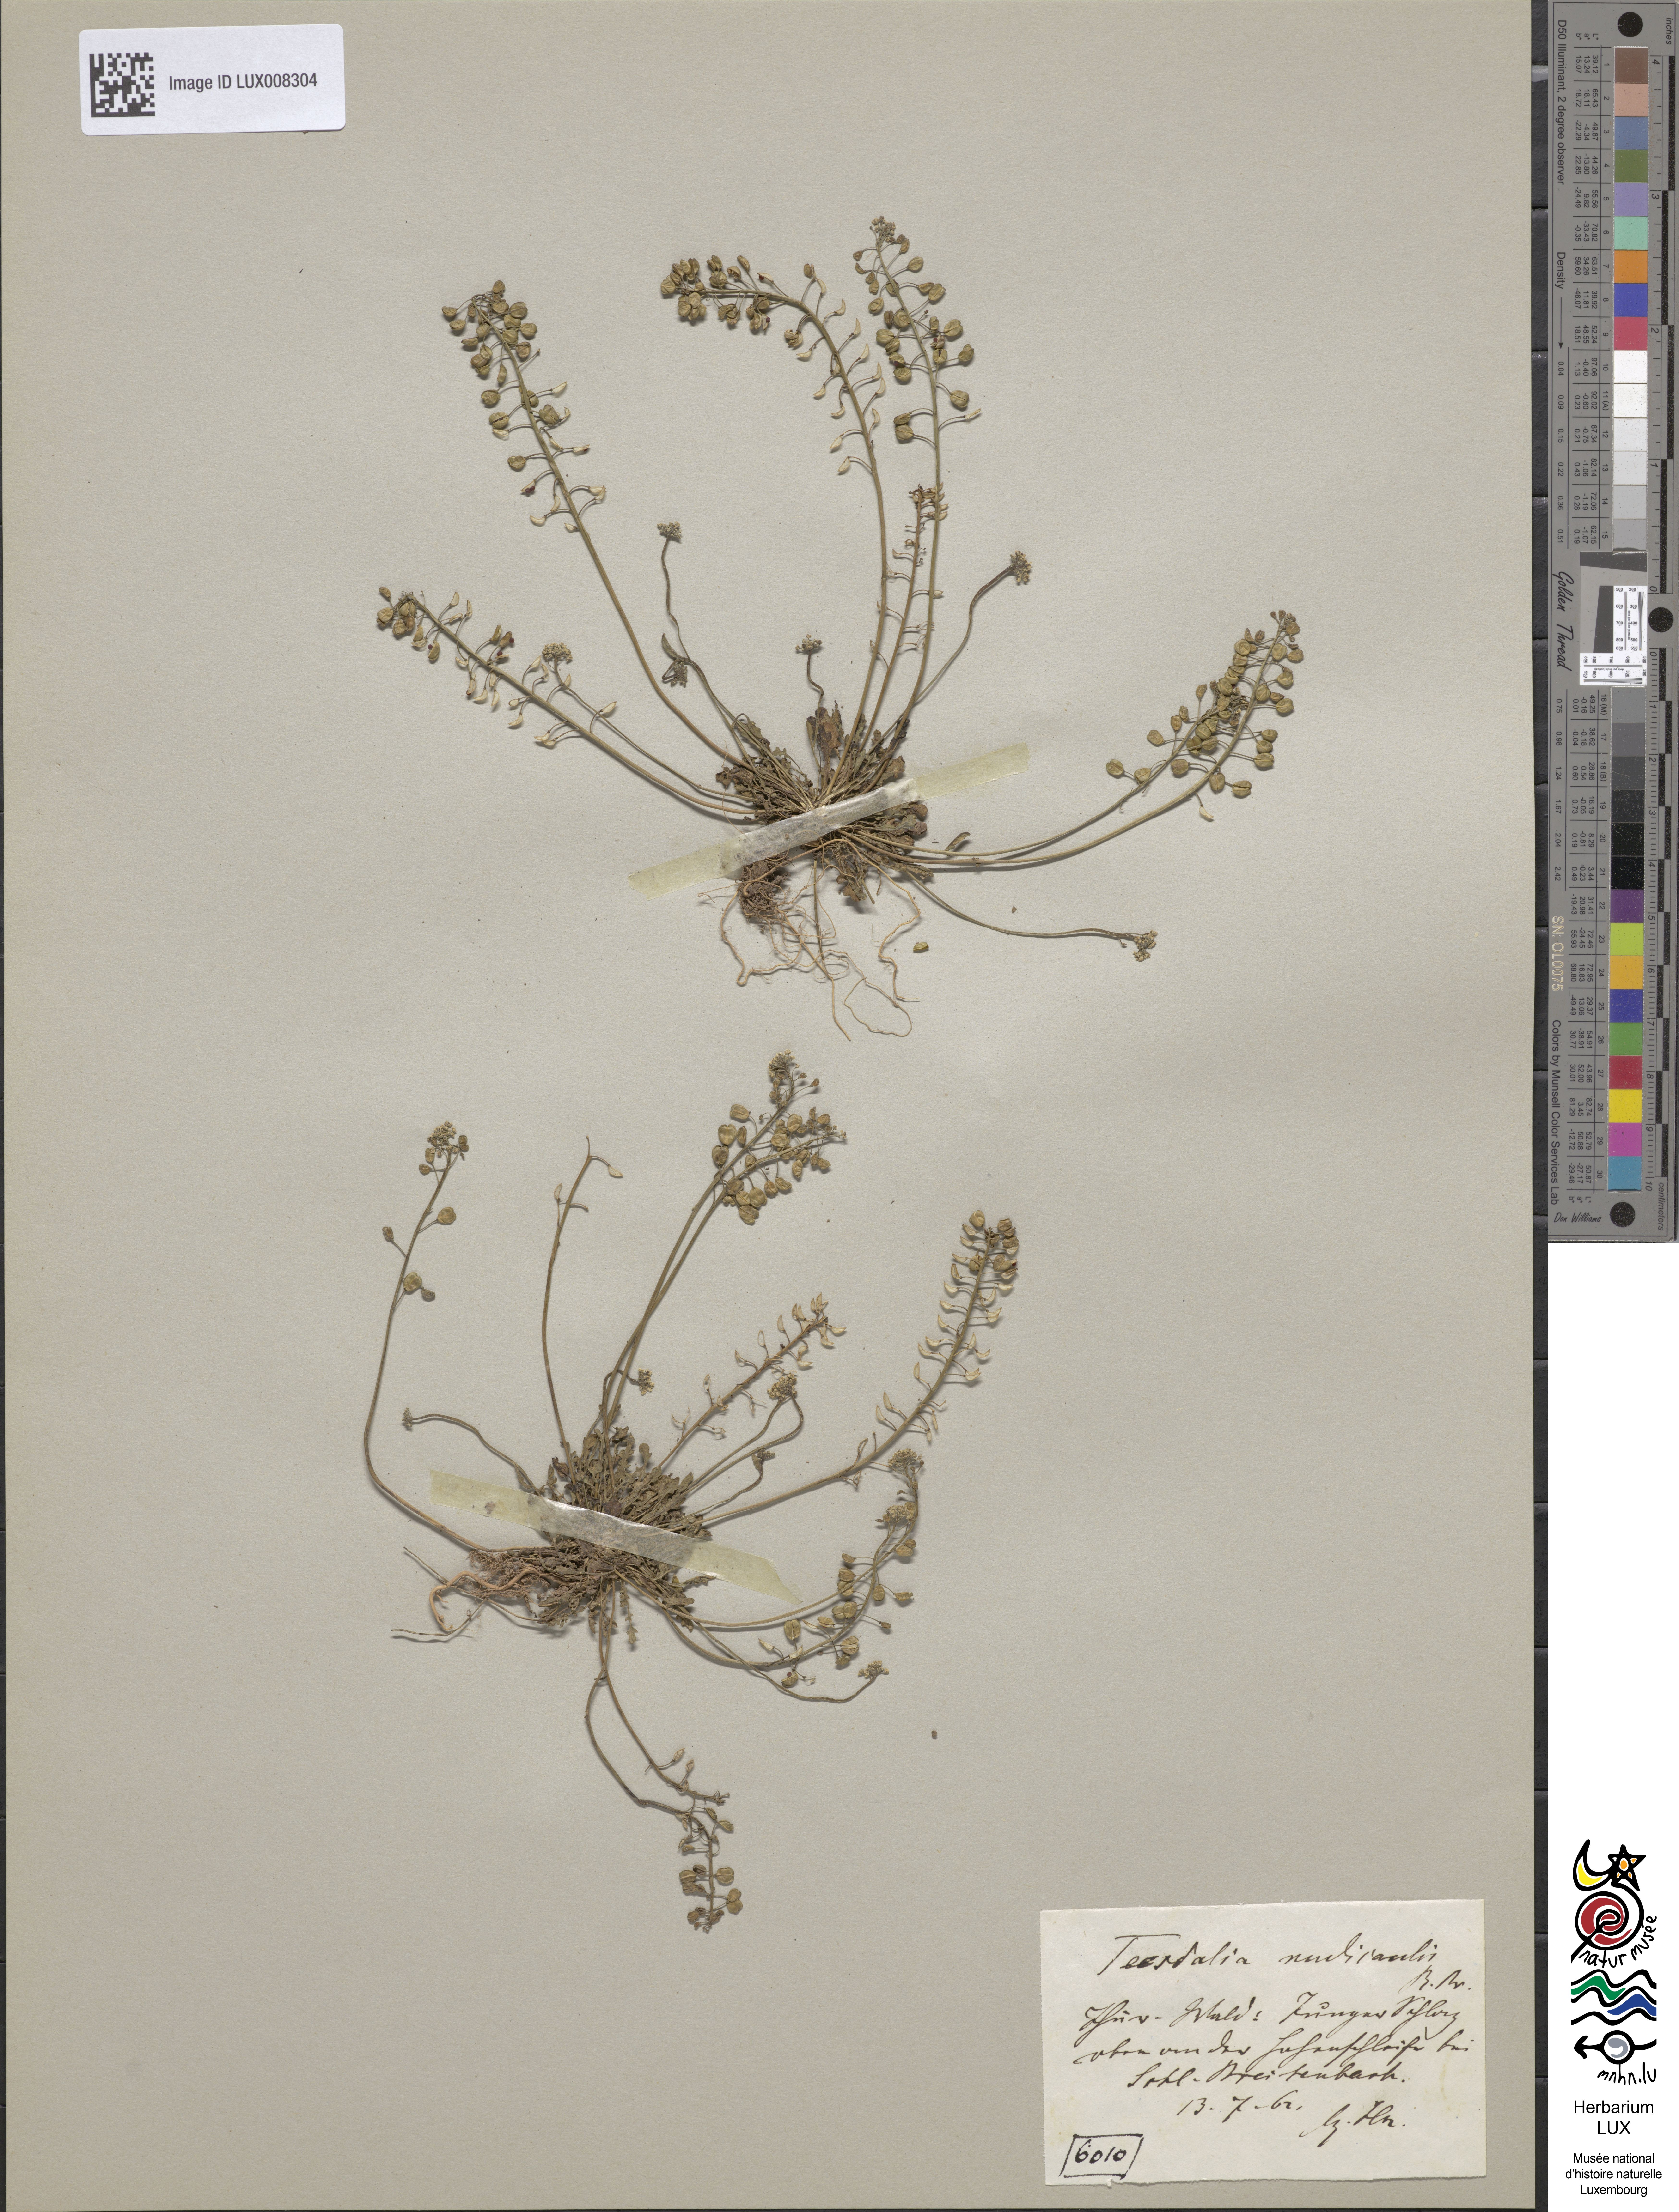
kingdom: Plantae
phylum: Tracheophyta
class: Magnoliopsida
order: Brassicales
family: Brassicaceae
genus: Teesdalia
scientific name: Teesdalia nudicaulis
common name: Shepherd's cress
